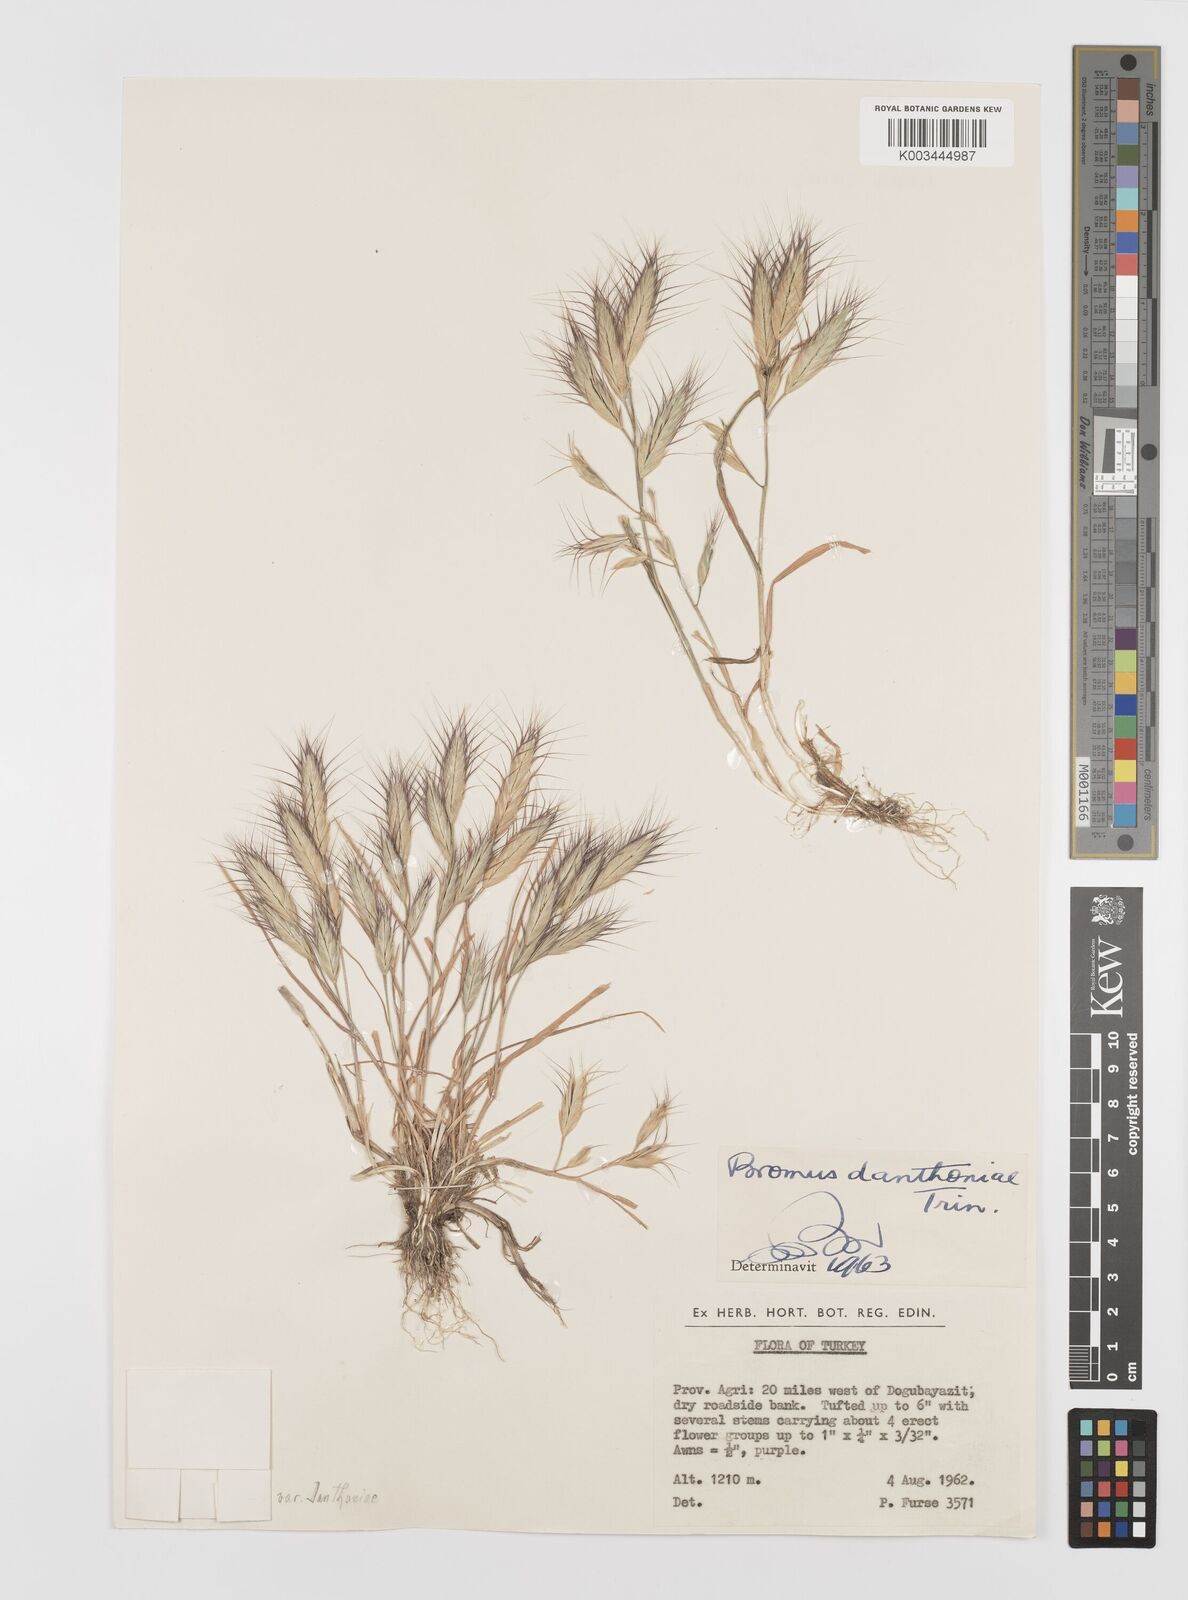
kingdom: Plantae
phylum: Tracheophyta
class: Liliopsida
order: Poales
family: Poaceae
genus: Bromus
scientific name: Bromus danthoniae
